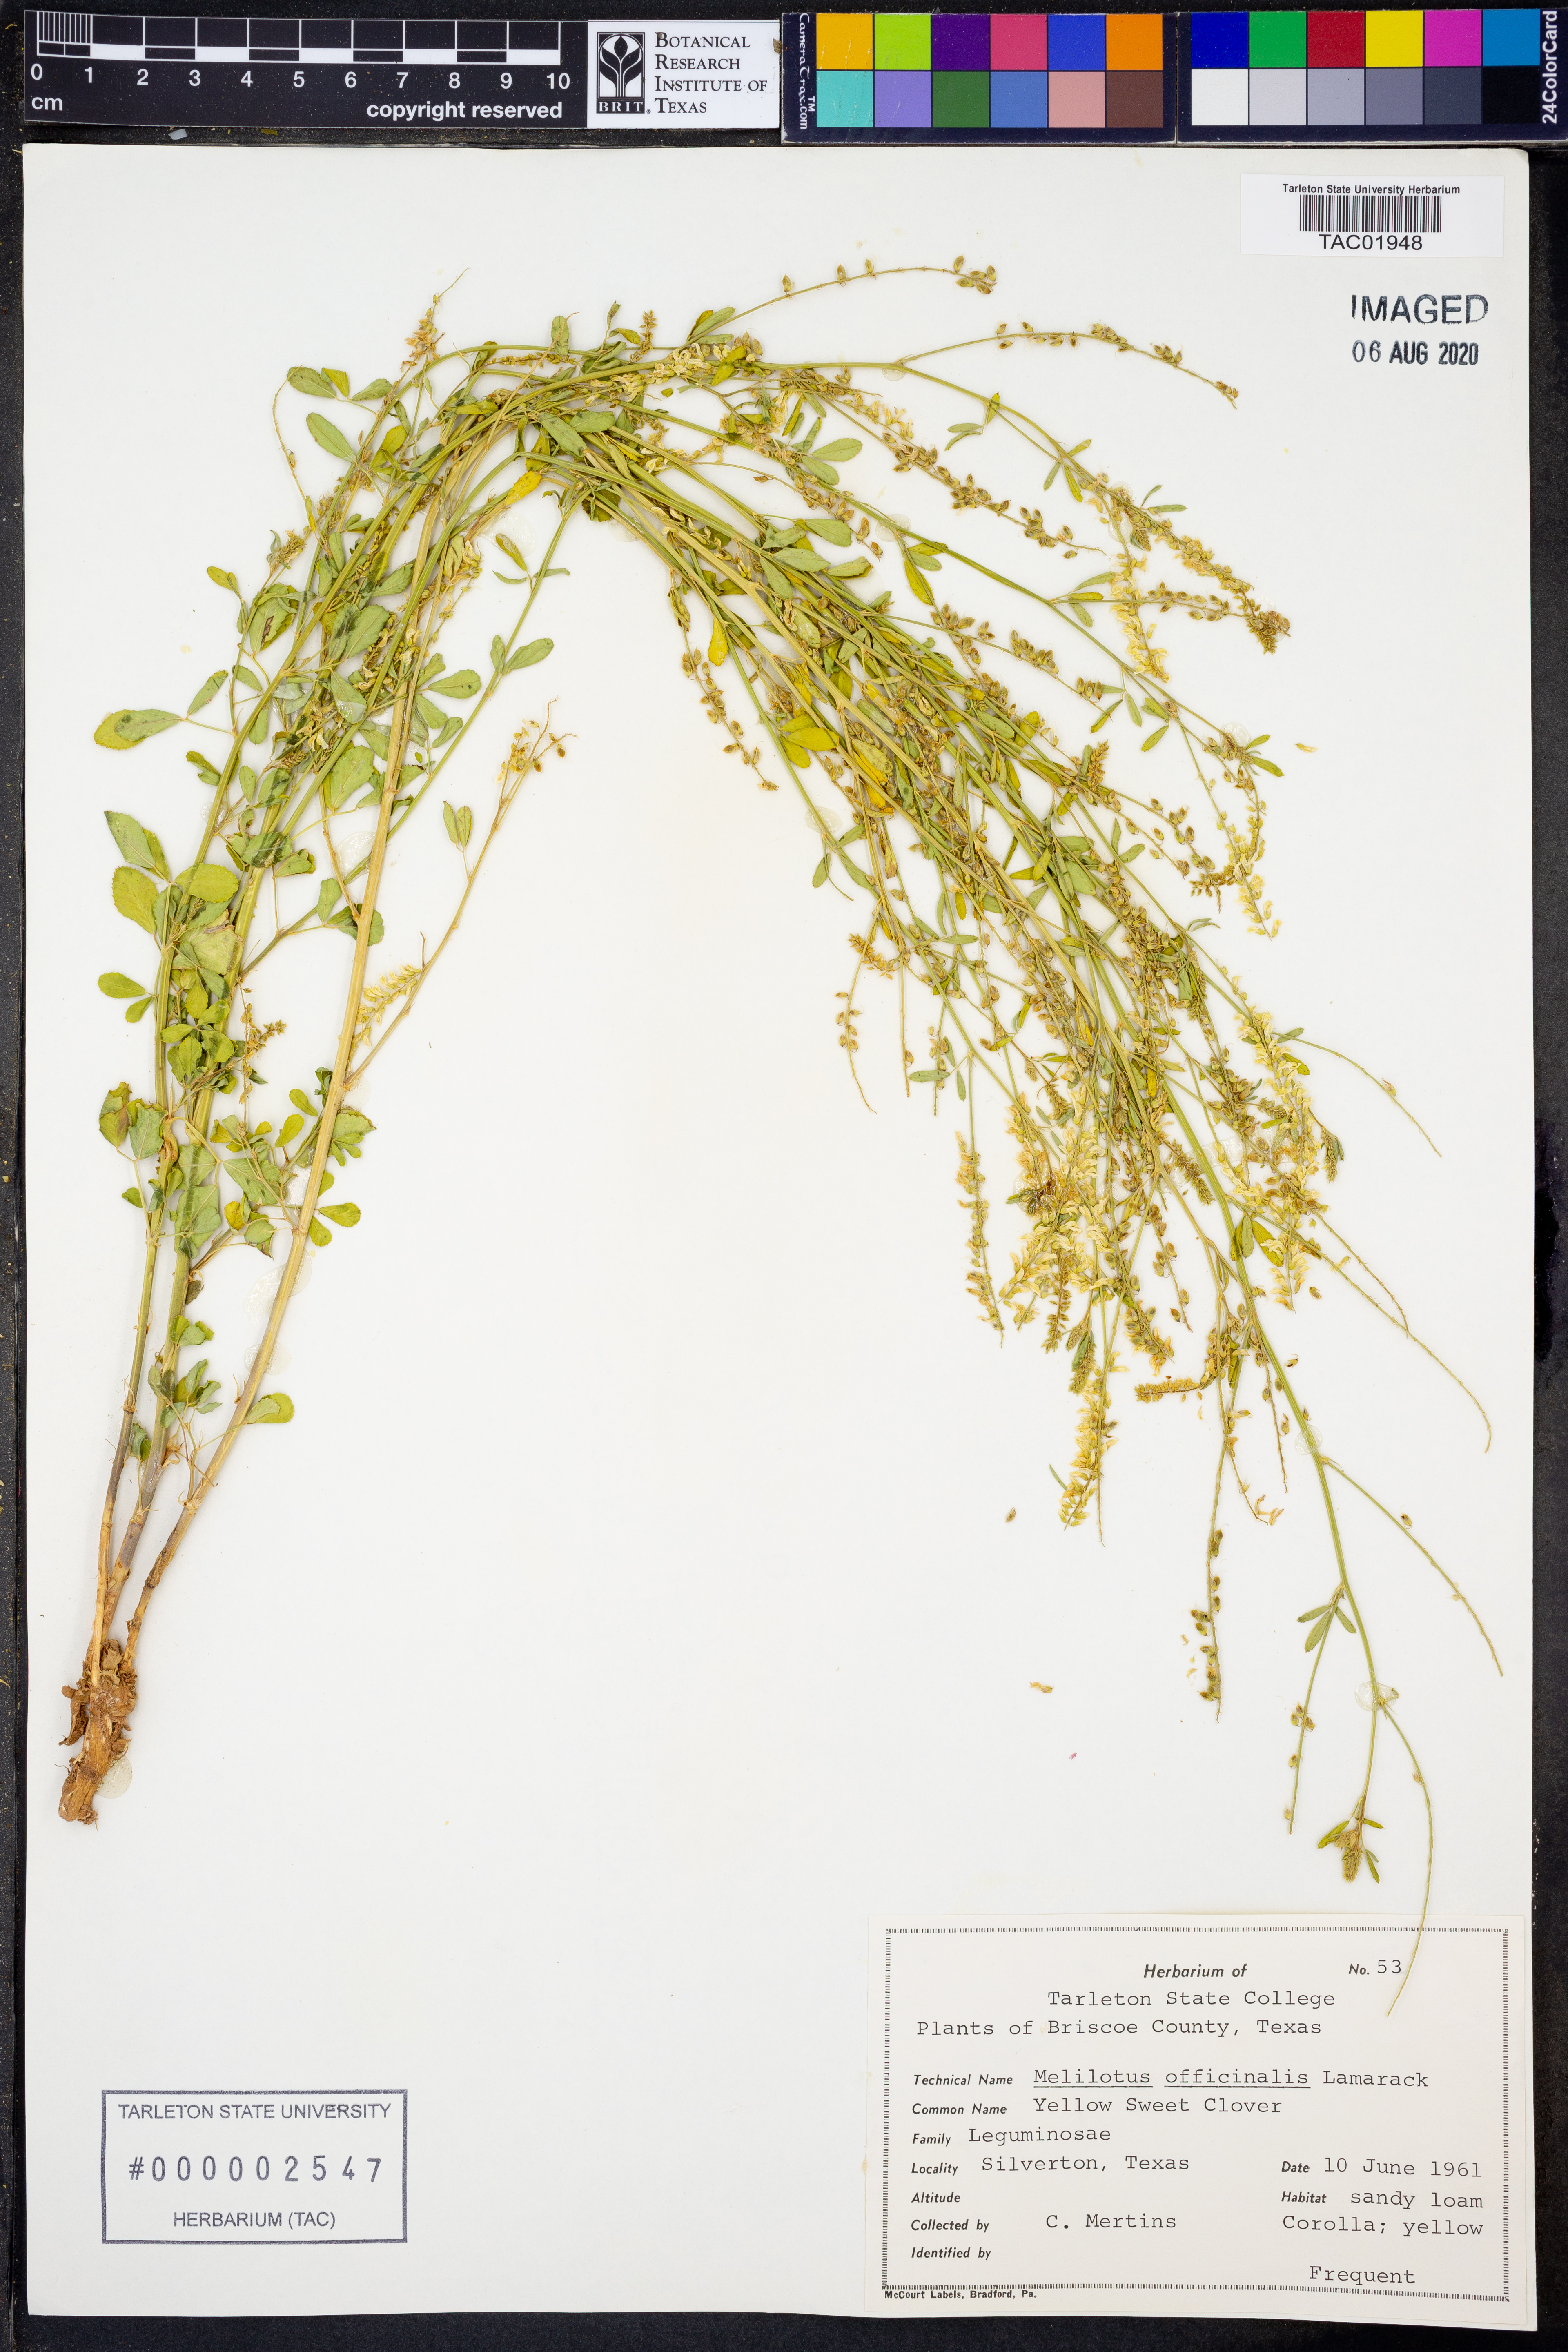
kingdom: Plantae
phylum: Tracheophyta
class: Magnoliopsida
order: Fabales
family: Fabaceae
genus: Melilotus
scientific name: Melilotus officinalis
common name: Sweetclover
